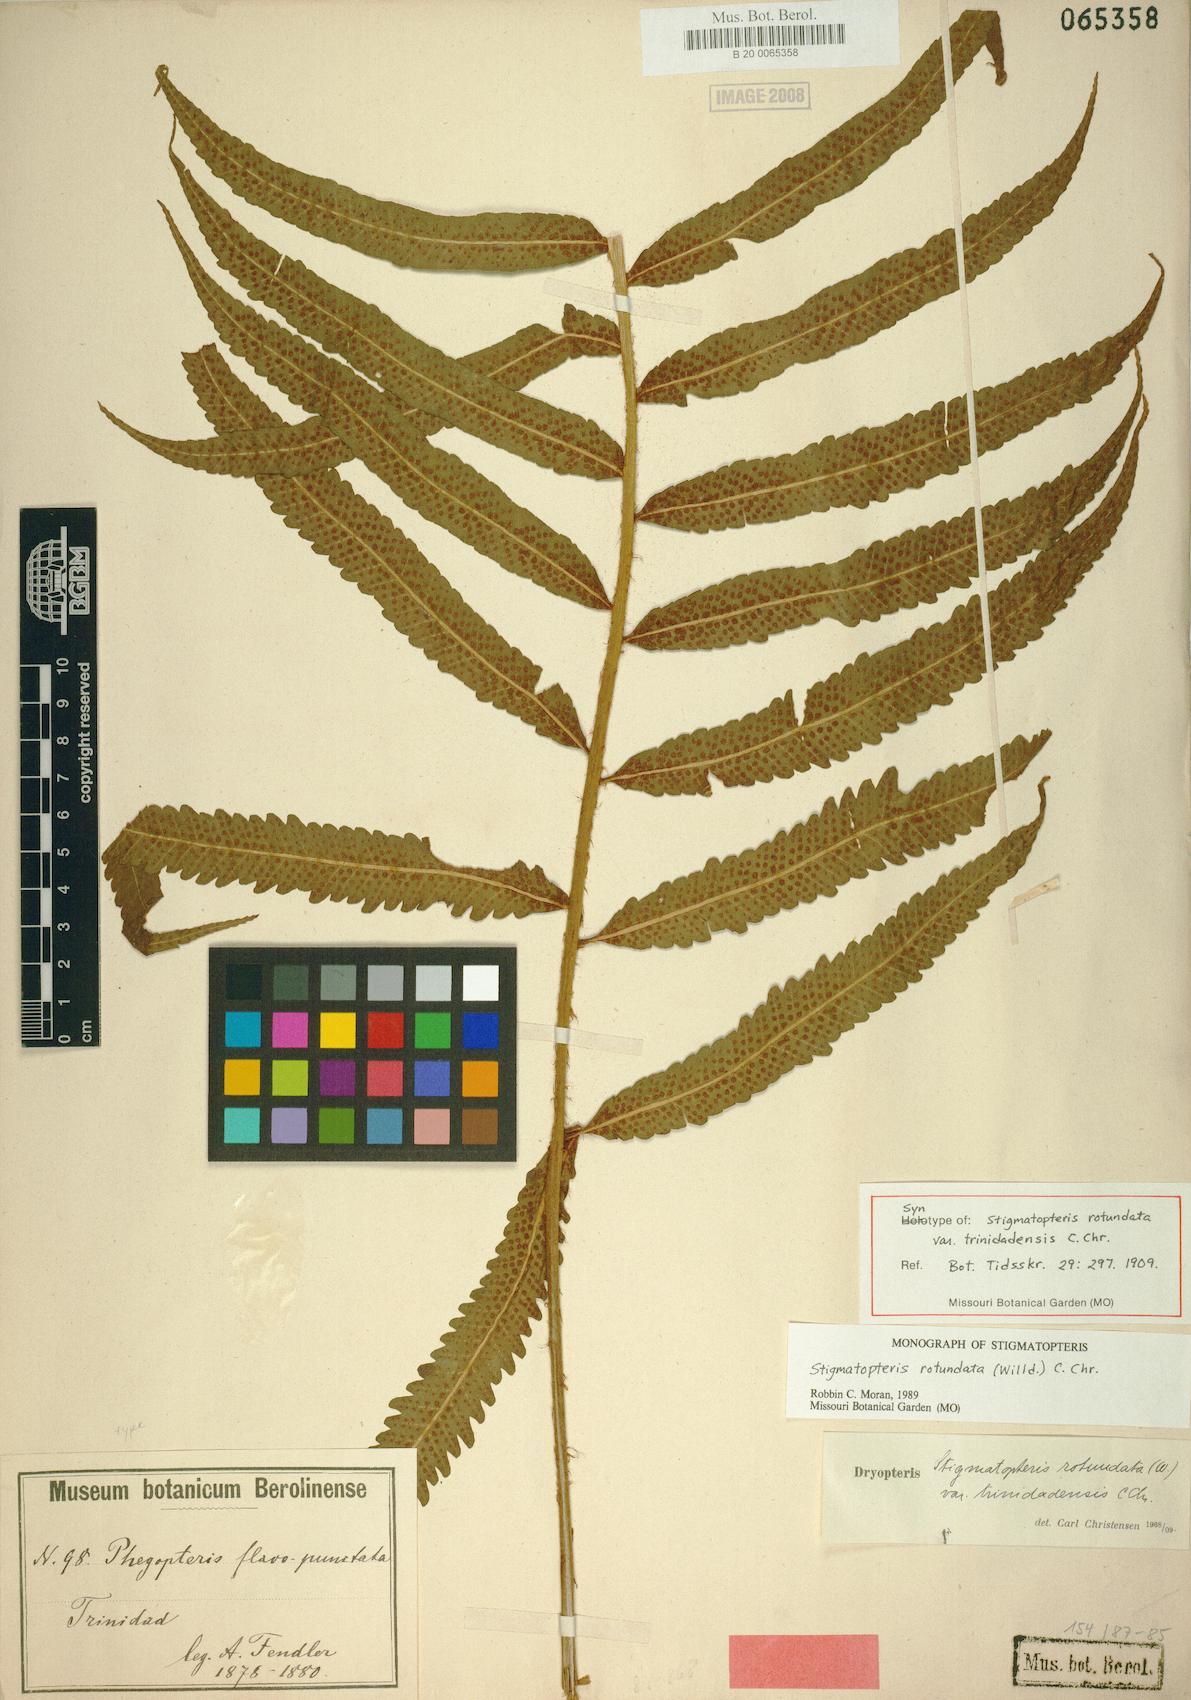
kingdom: Plantae
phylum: Tracheophyta
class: Polypodiopsida
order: Polypodiales
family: Dryopteridaceae
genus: Stigmatopteris
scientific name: Stigmatopteris rotundata
